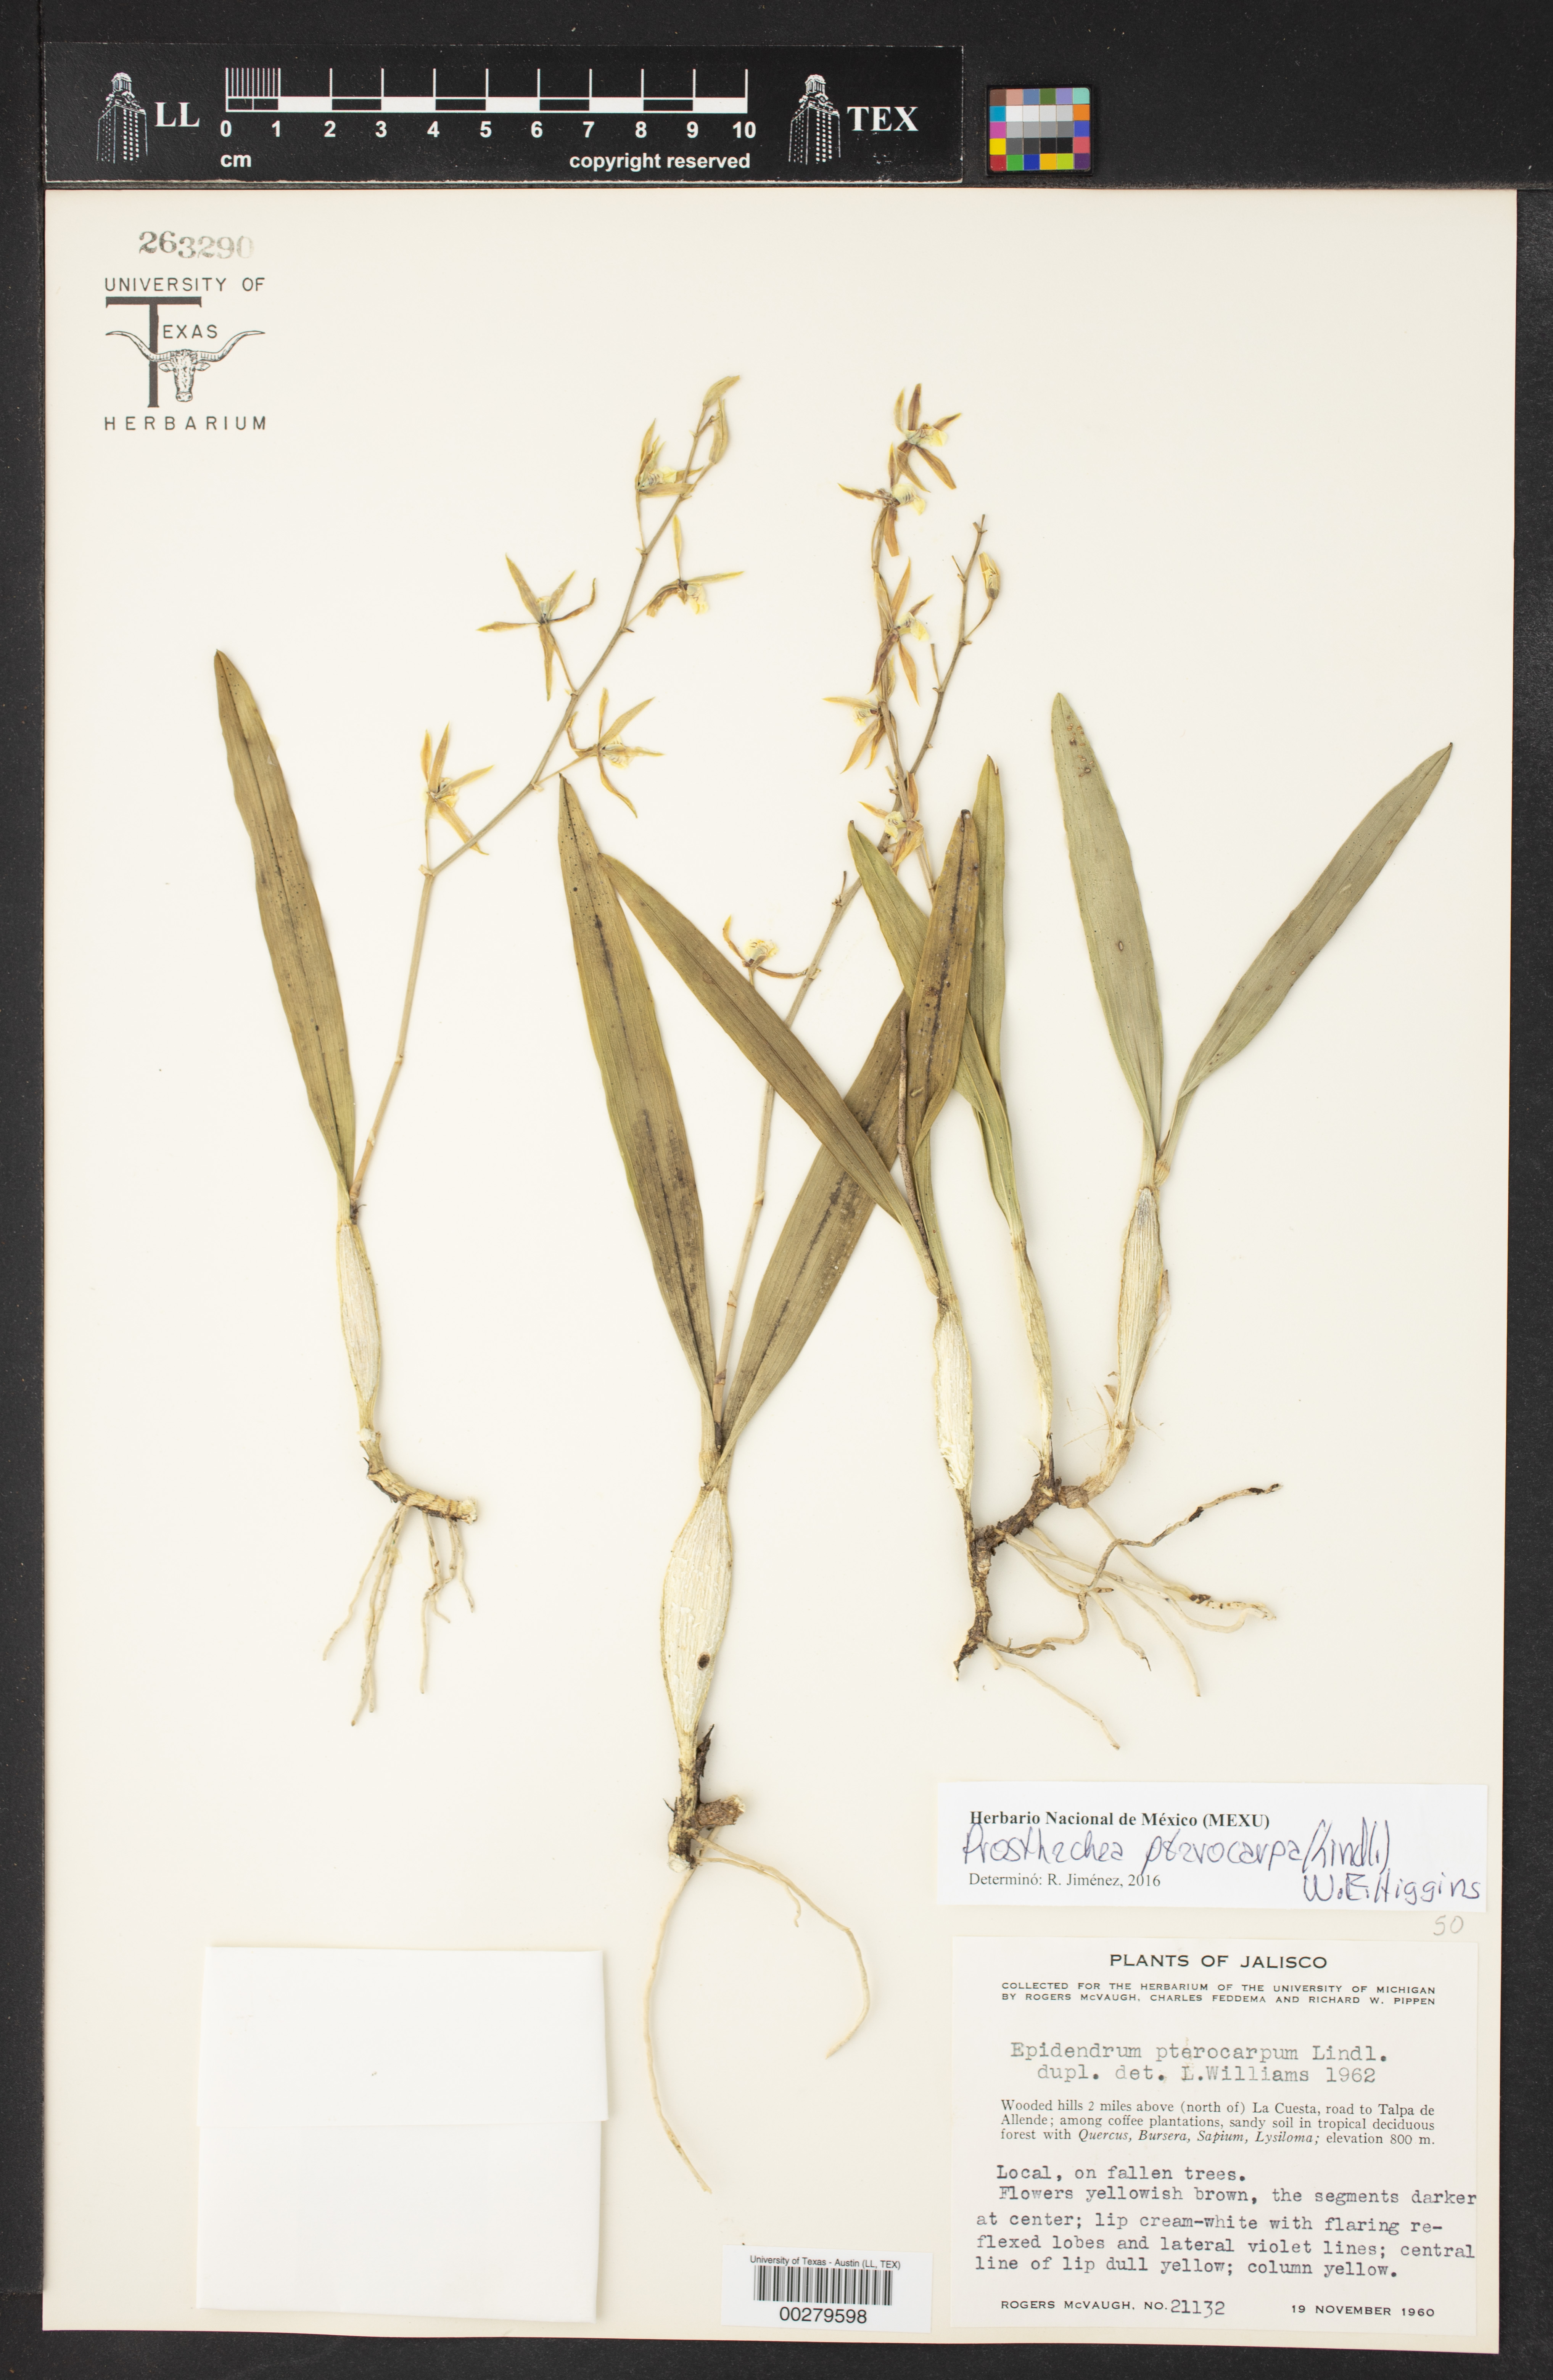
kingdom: Plantae
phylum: Tracheophyta
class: Liliopsida
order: Asparagales
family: Orchidaceae
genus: Prosthechea
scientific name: Prosthechea pterocarpa
